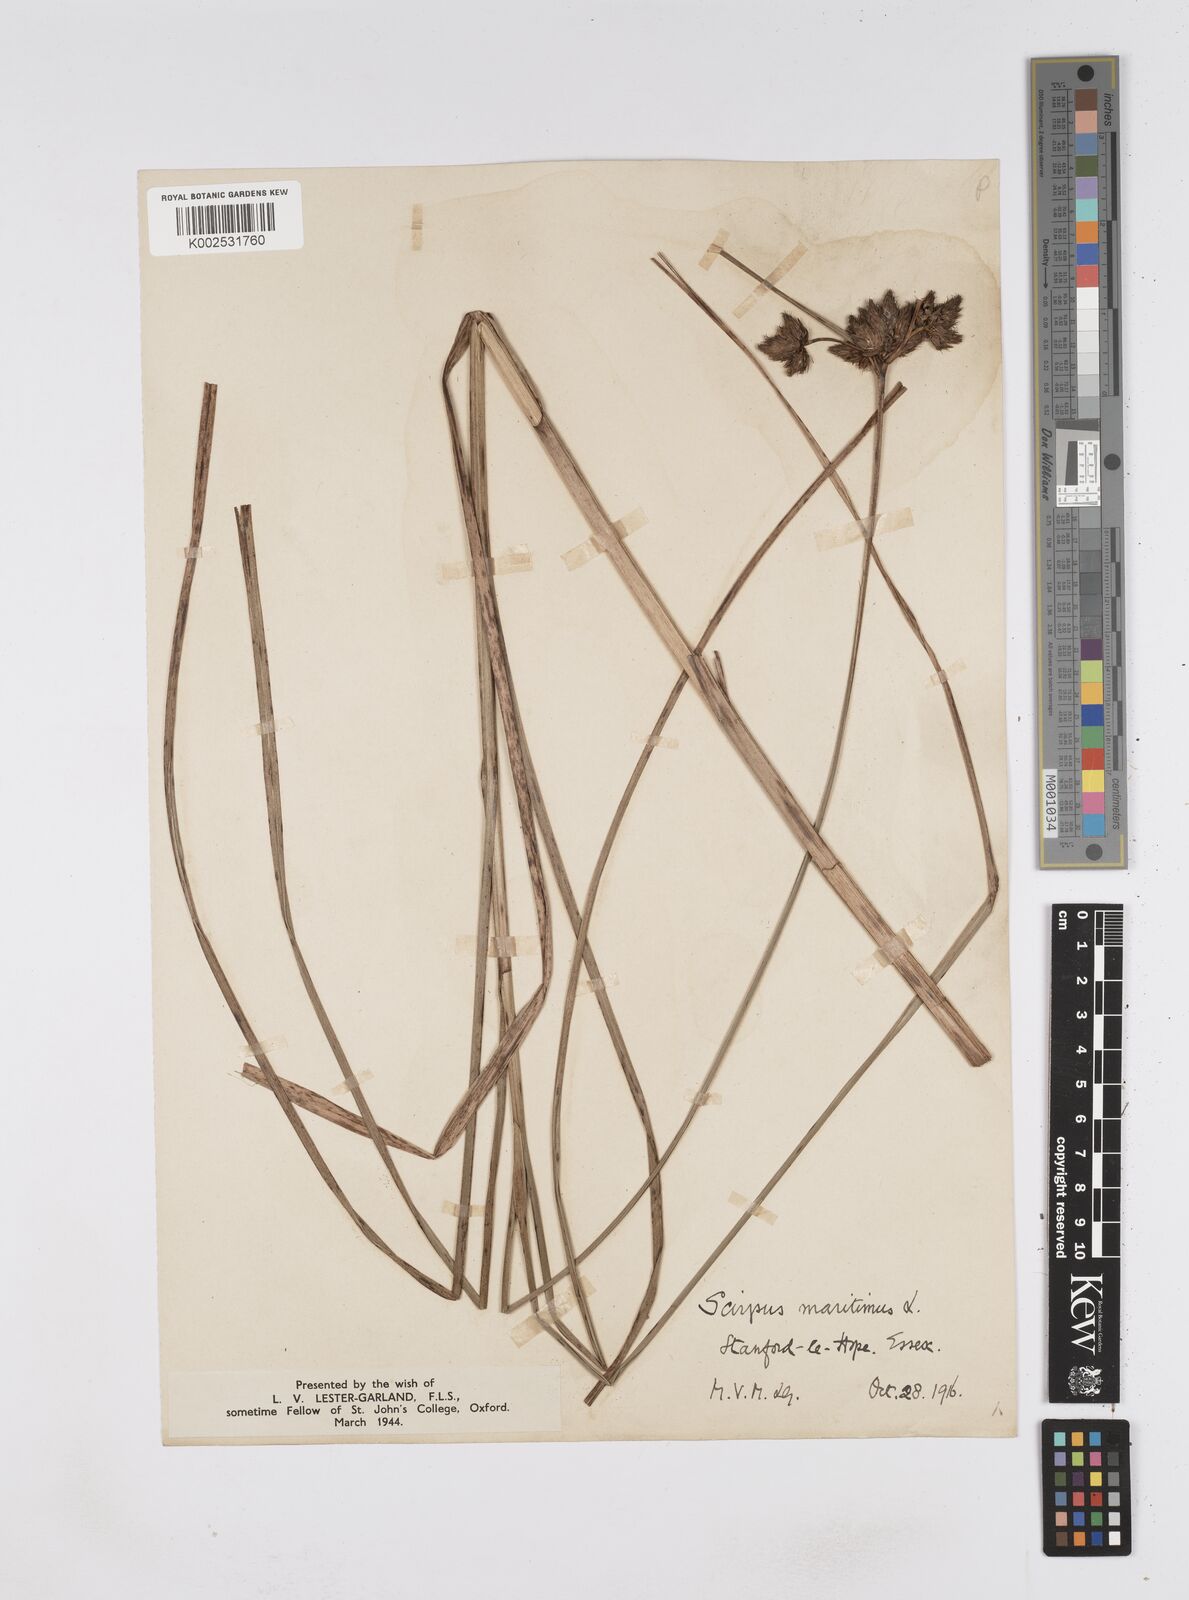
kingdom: Plantae
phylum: Tracheophyta
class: Liliopsida
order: Poales
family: Cyperaceae
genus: Bolboschoenus
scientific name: Bolboschoenus maritimus
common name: Sea club-rush
